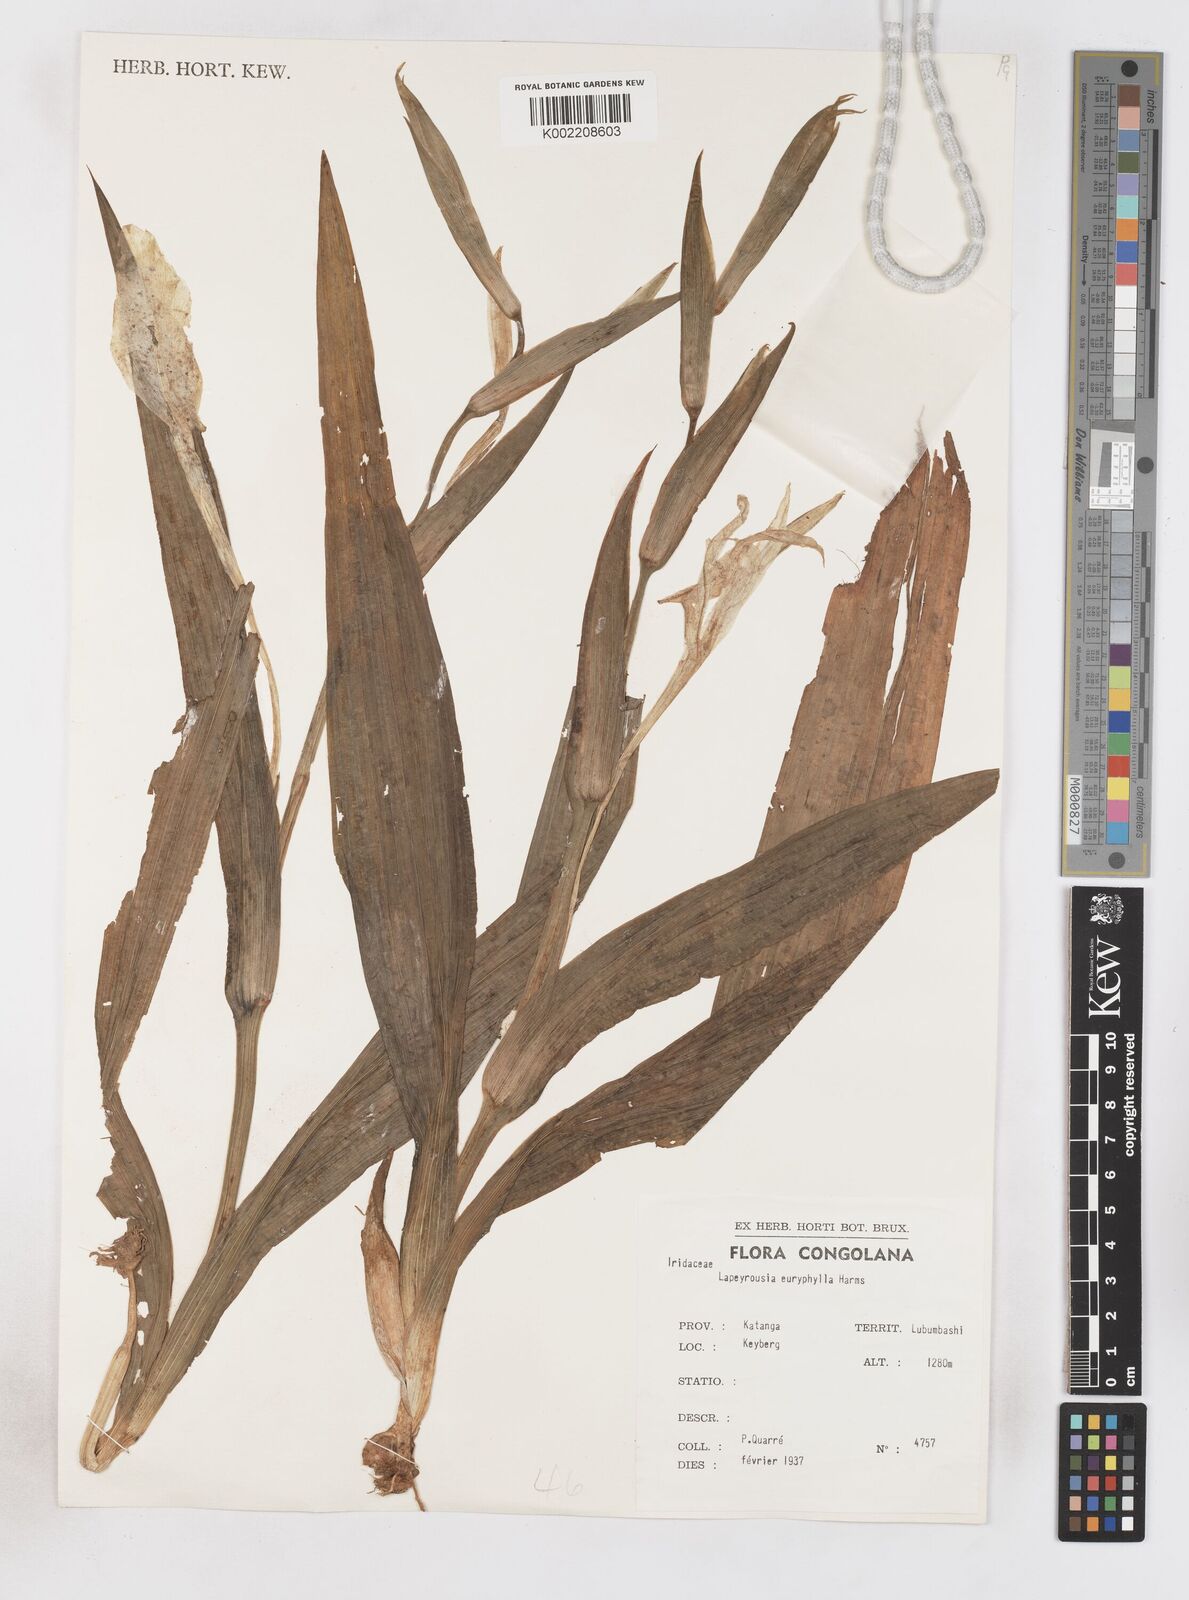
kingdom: Plantae
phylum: Tracheophyta
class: Liliopsida
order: Asparagales
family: Iridaceae
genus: Savannosiphon
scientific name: Savannosiphon euryphylla
